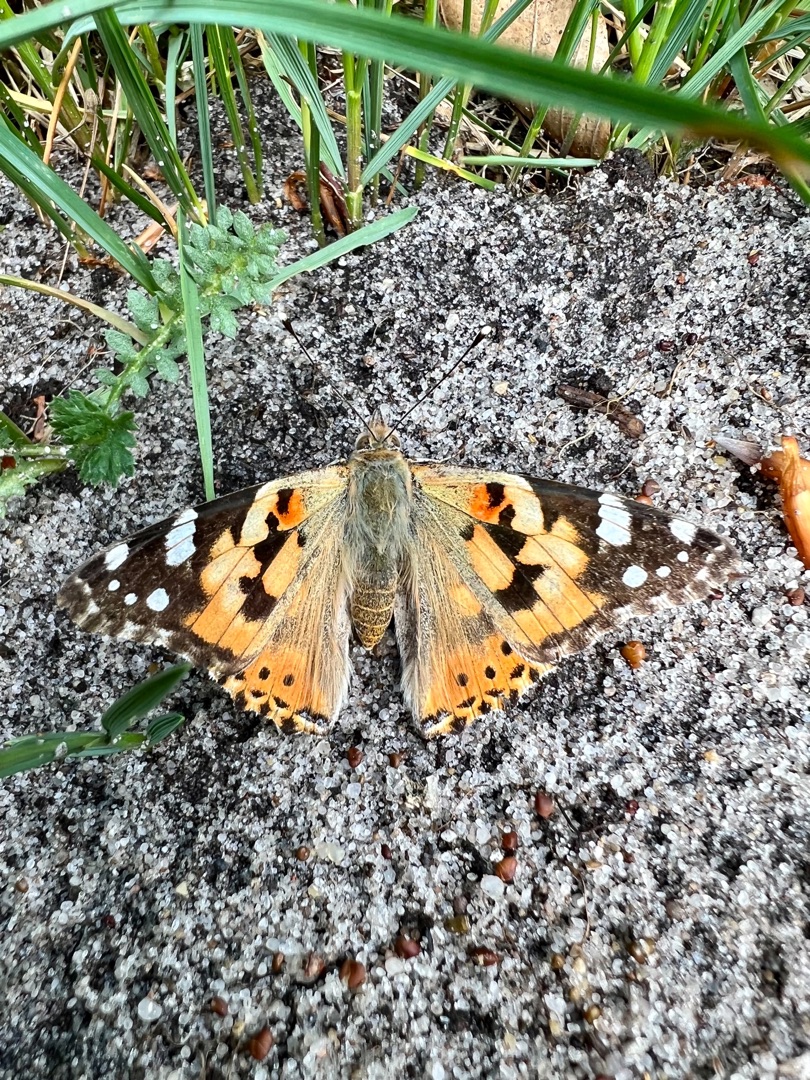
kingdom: Animalia
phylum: Arthropoda
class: Insecta
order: Lepidoptera
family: Nymphalidae
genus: Vanessa
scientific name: Vanessa cardui
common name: Tidselsommerfugl
